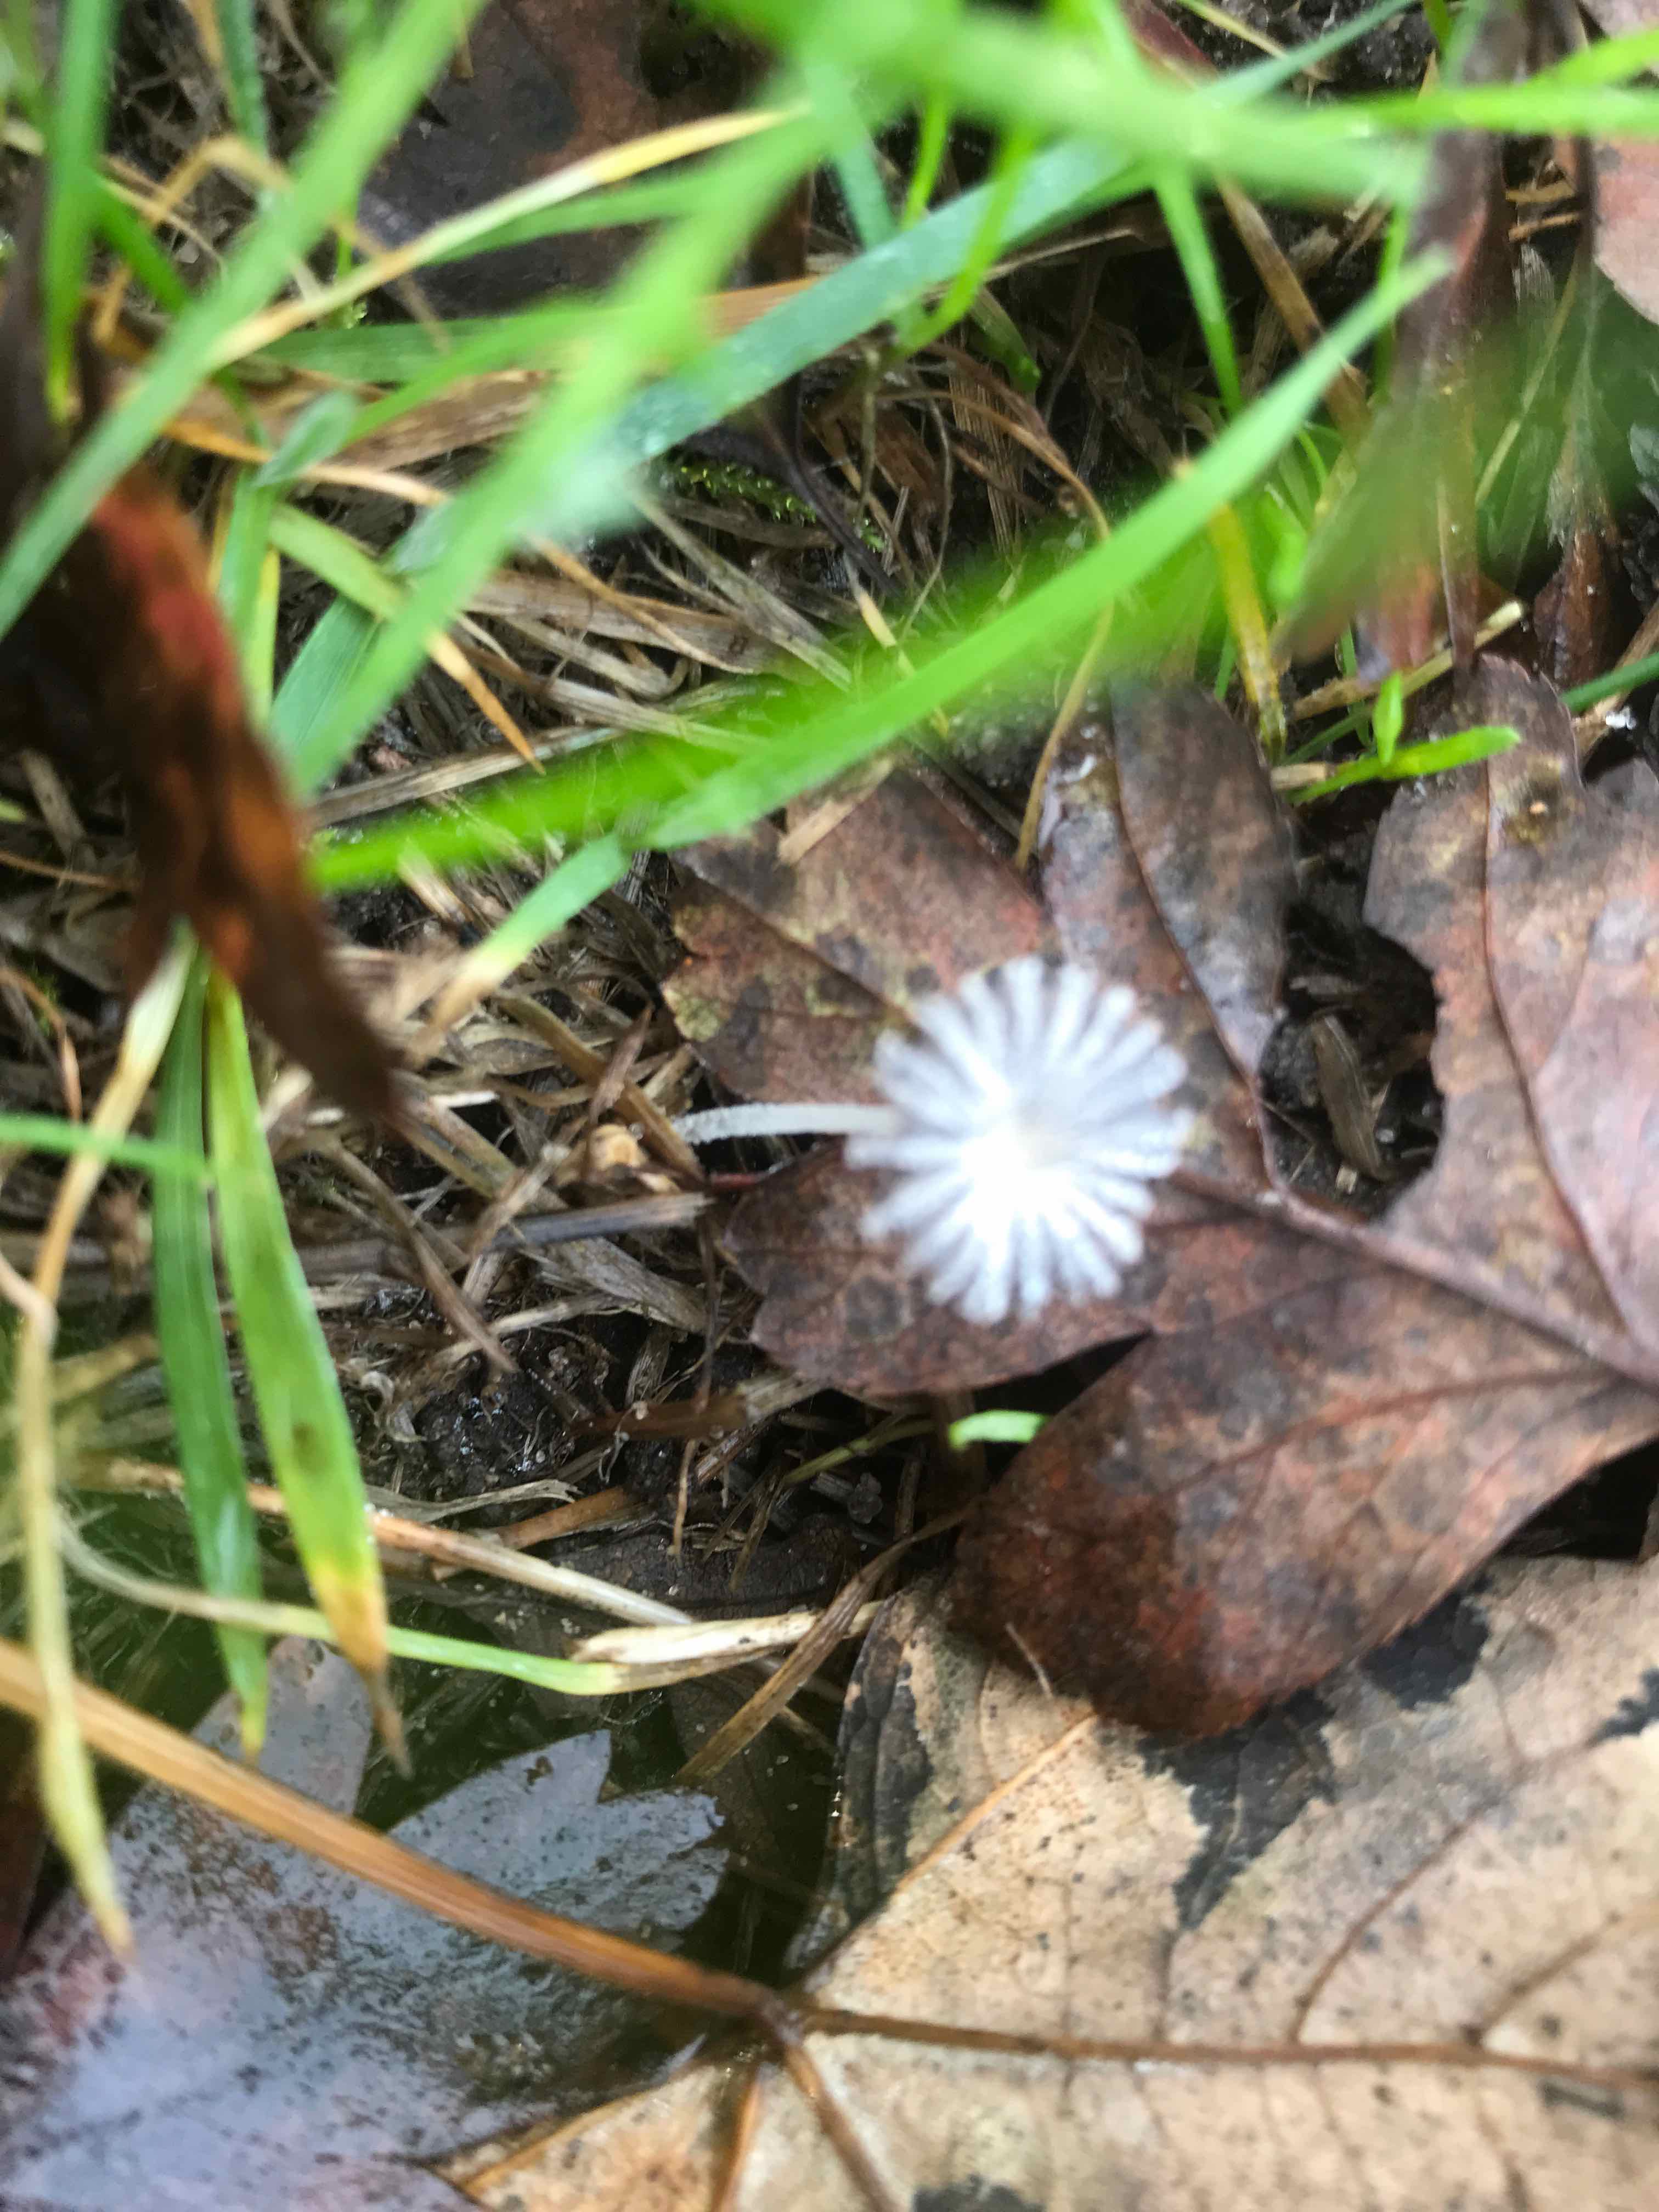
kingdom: Fungi
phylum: Basidiomycota
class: Agaricomycetes
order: Agaricales
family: Psathyrellaceae
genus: Coprinopsis
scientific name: Coprinopsis
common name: blækhat
